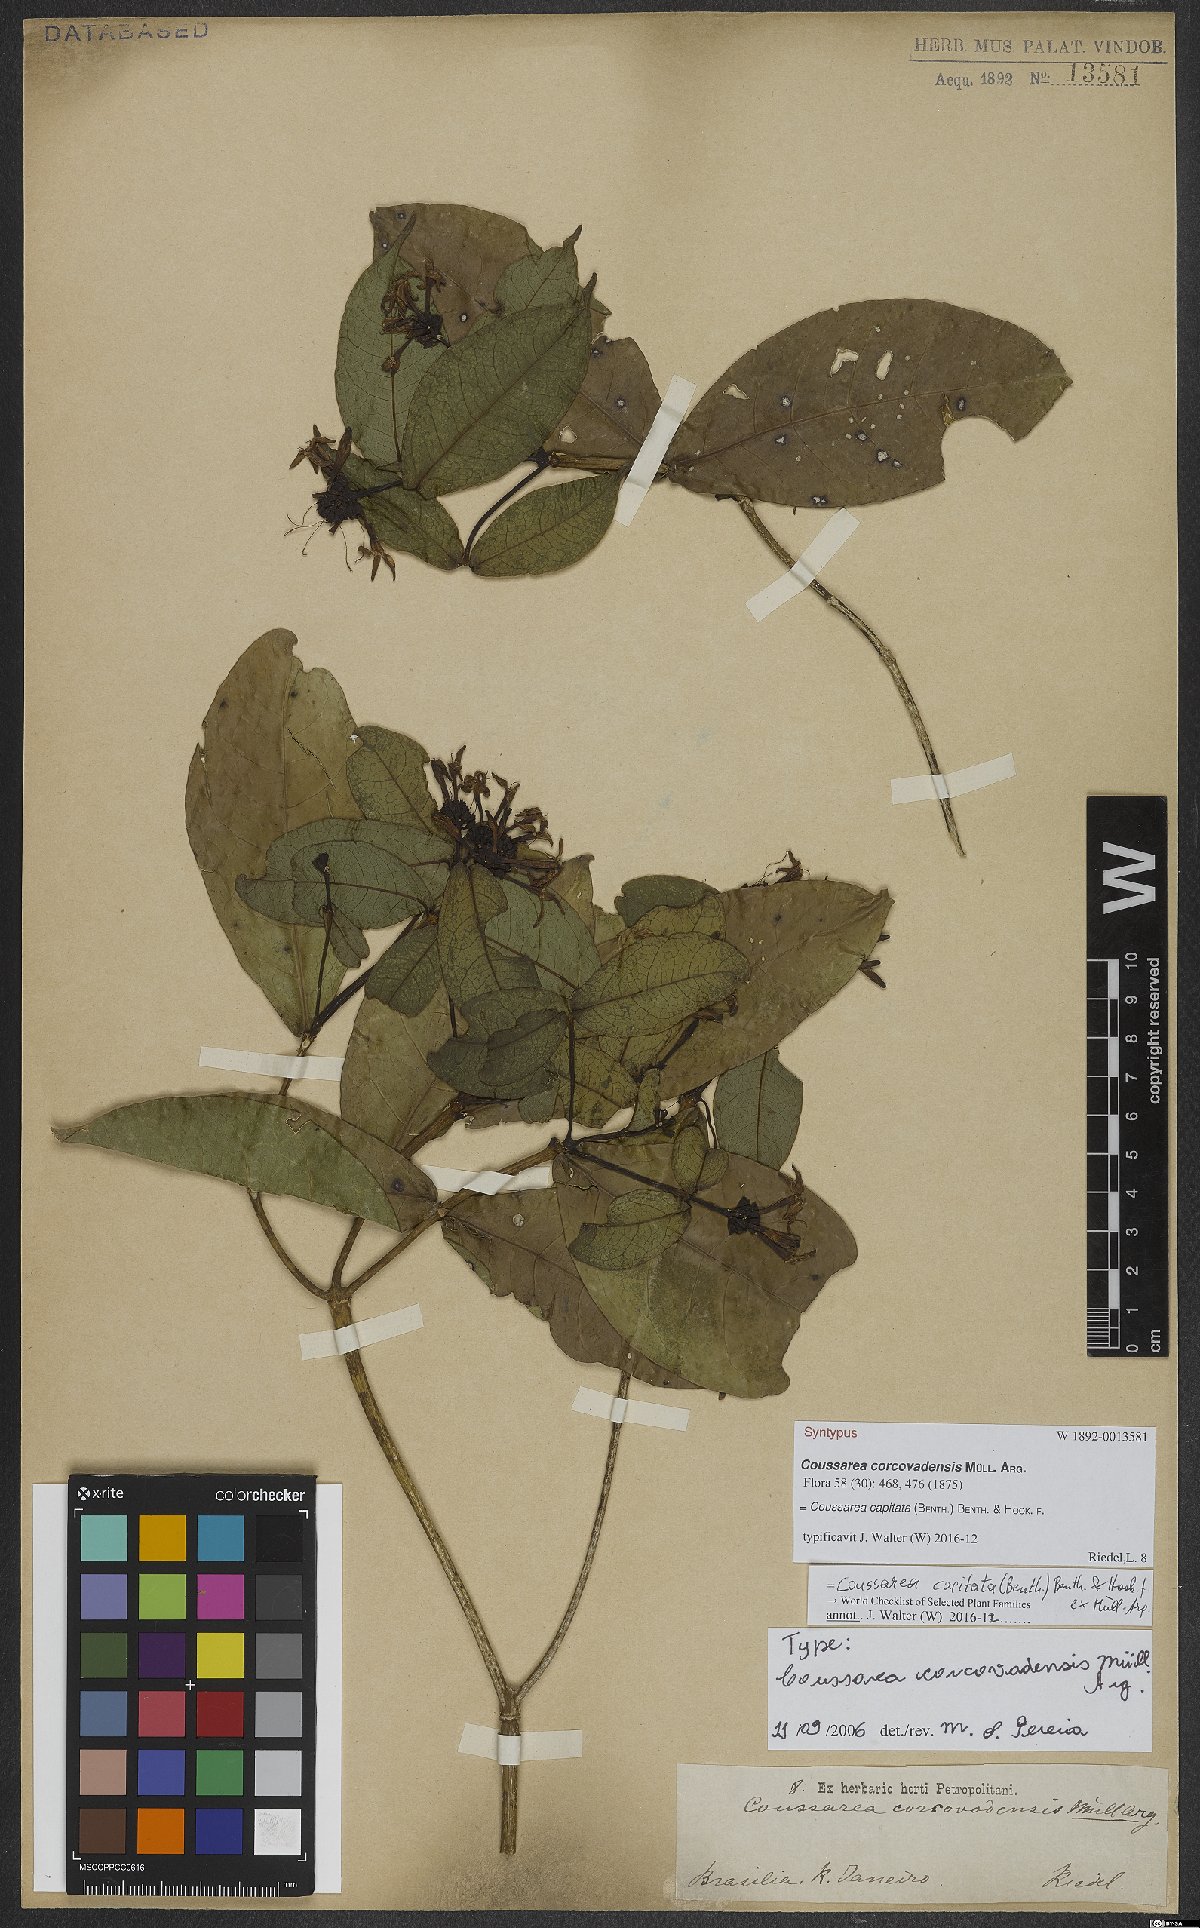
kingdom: Plantae
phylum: Tracheophyta
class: Magnoliopsida
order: Gentianales
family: Rubiaceae
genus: Coussarea
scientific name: Coussarea capitata
